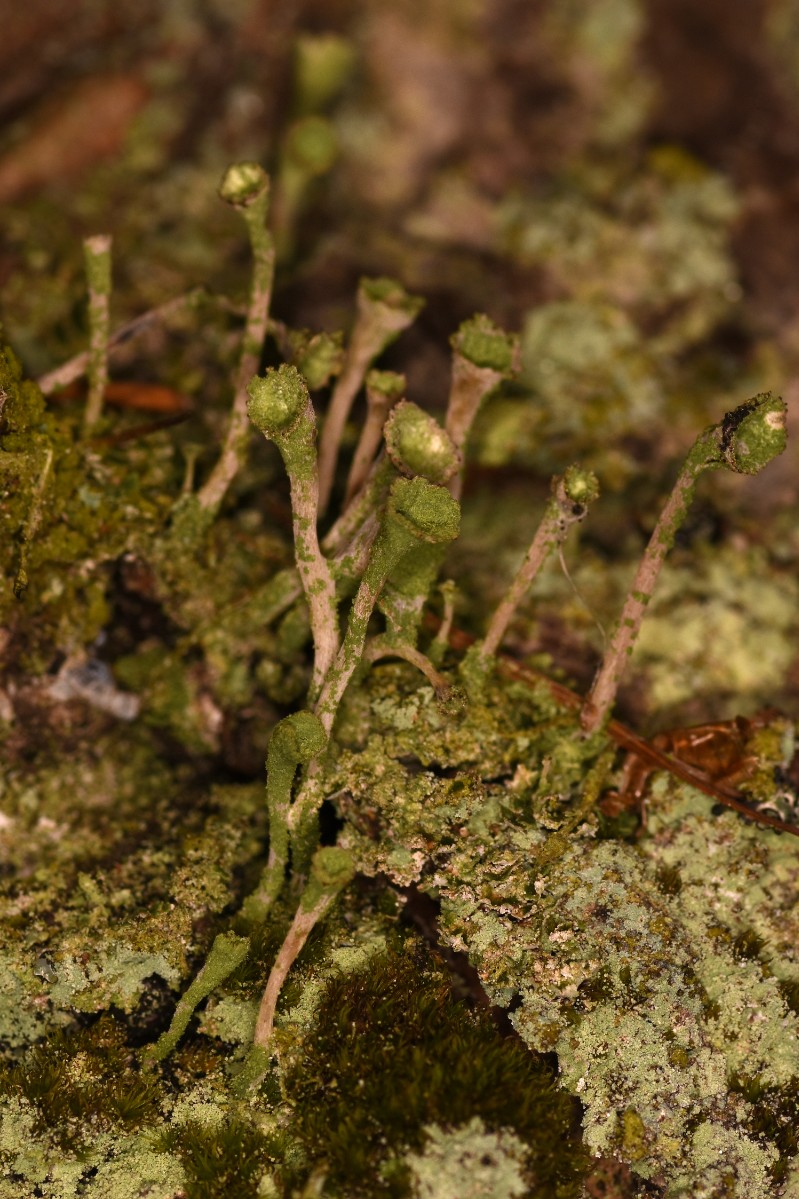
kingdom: Fungi
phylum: Ascomycota
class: Lecanoromycetes
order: Lecanorales
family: Cladoniaceae
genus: Cladonia
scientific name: Cladonia
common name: brungrøn bægerlav
